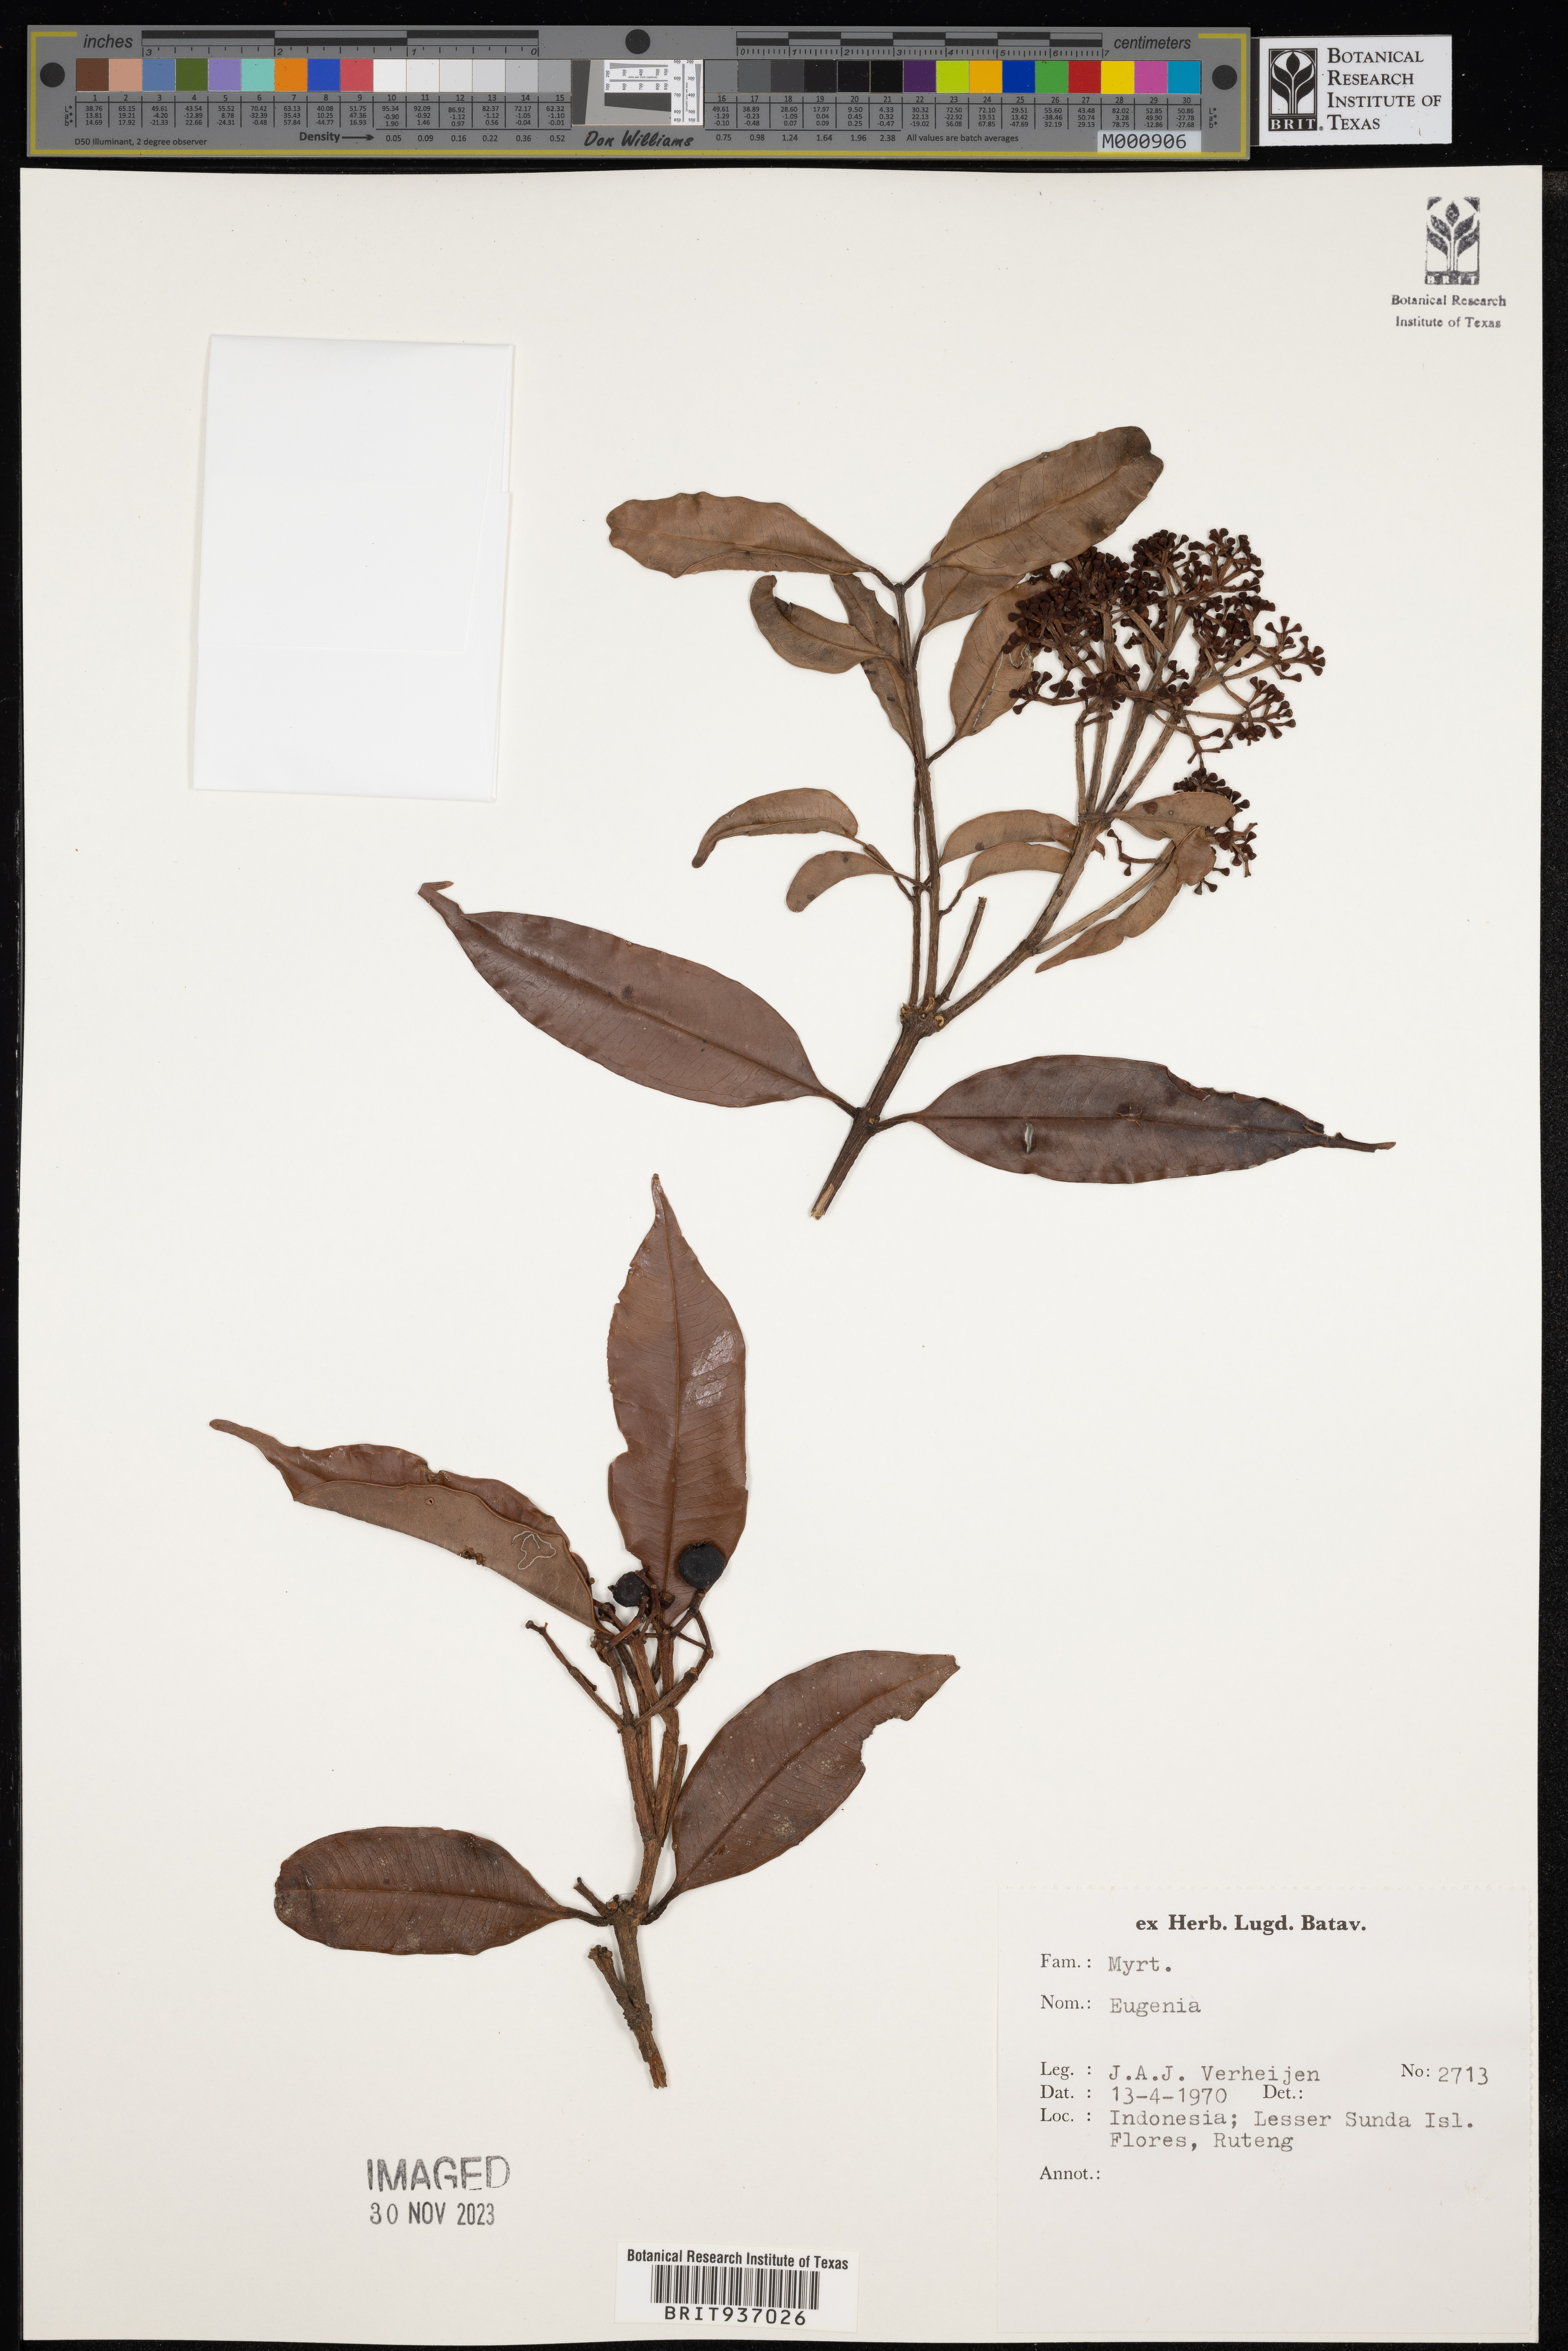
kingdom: Plantae
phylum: Tracheophyta
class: Magnoliopsida
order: Myrtales
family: Myrtaceae
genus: Eugenia
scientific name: Eugenia
